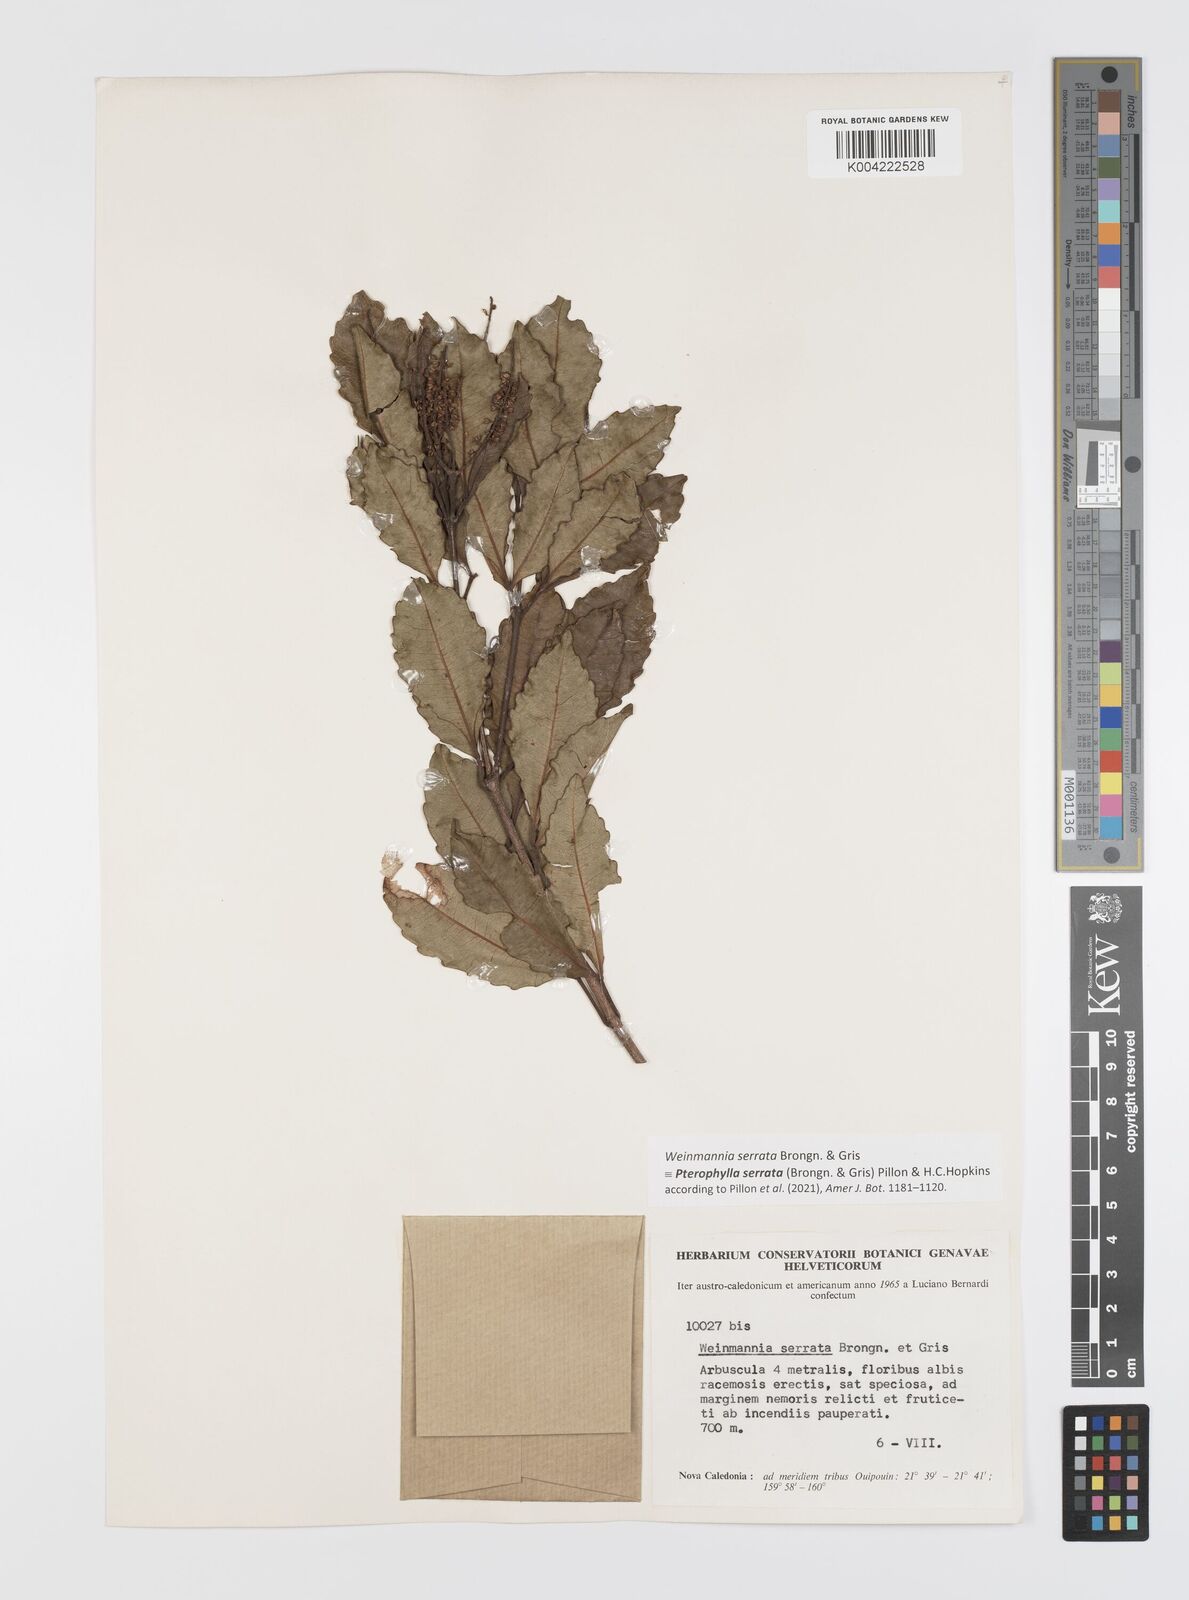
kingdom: Plantae
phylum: Tracheophyta
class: Magnoliopsida
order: Oxalidales
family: Cunoniaceae
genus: Pterophylla
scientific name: Pterophylla serrata
